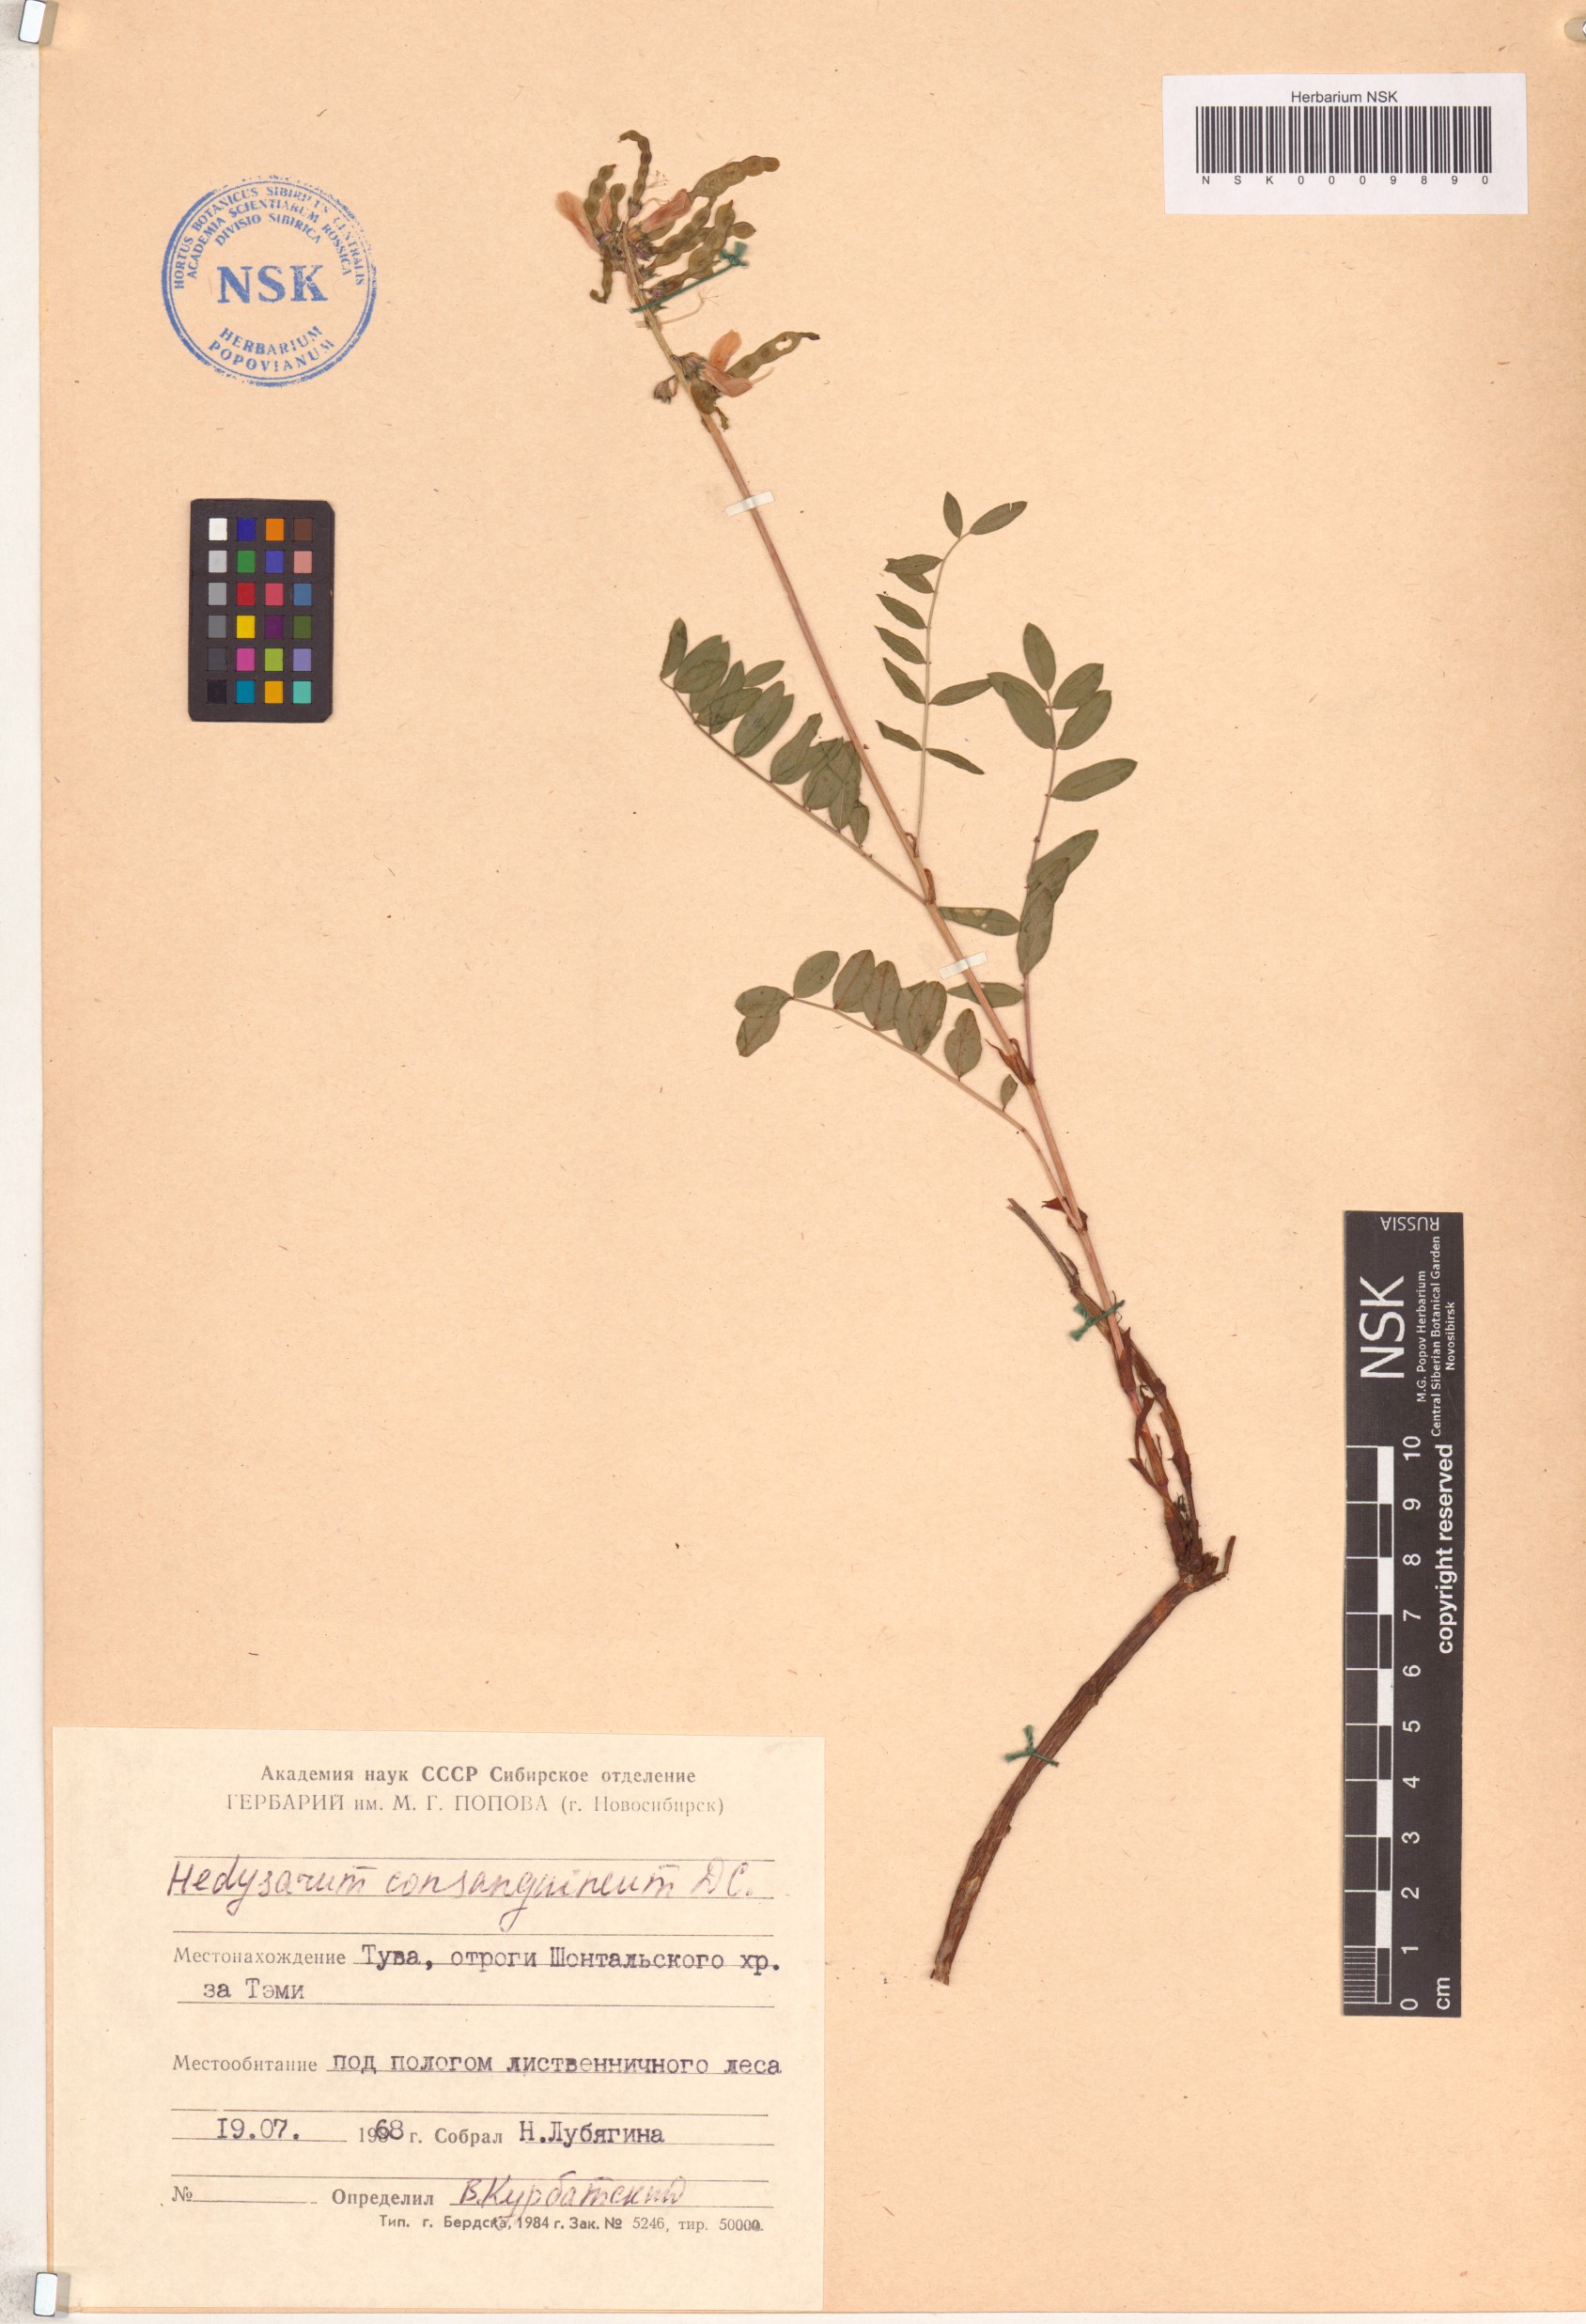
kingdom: Plantae
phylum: Tracheophyta
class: Magnoliopsida
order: Fabales
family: Fabaceae
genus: Hedysarum
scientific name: Hedysarum consanguineum
